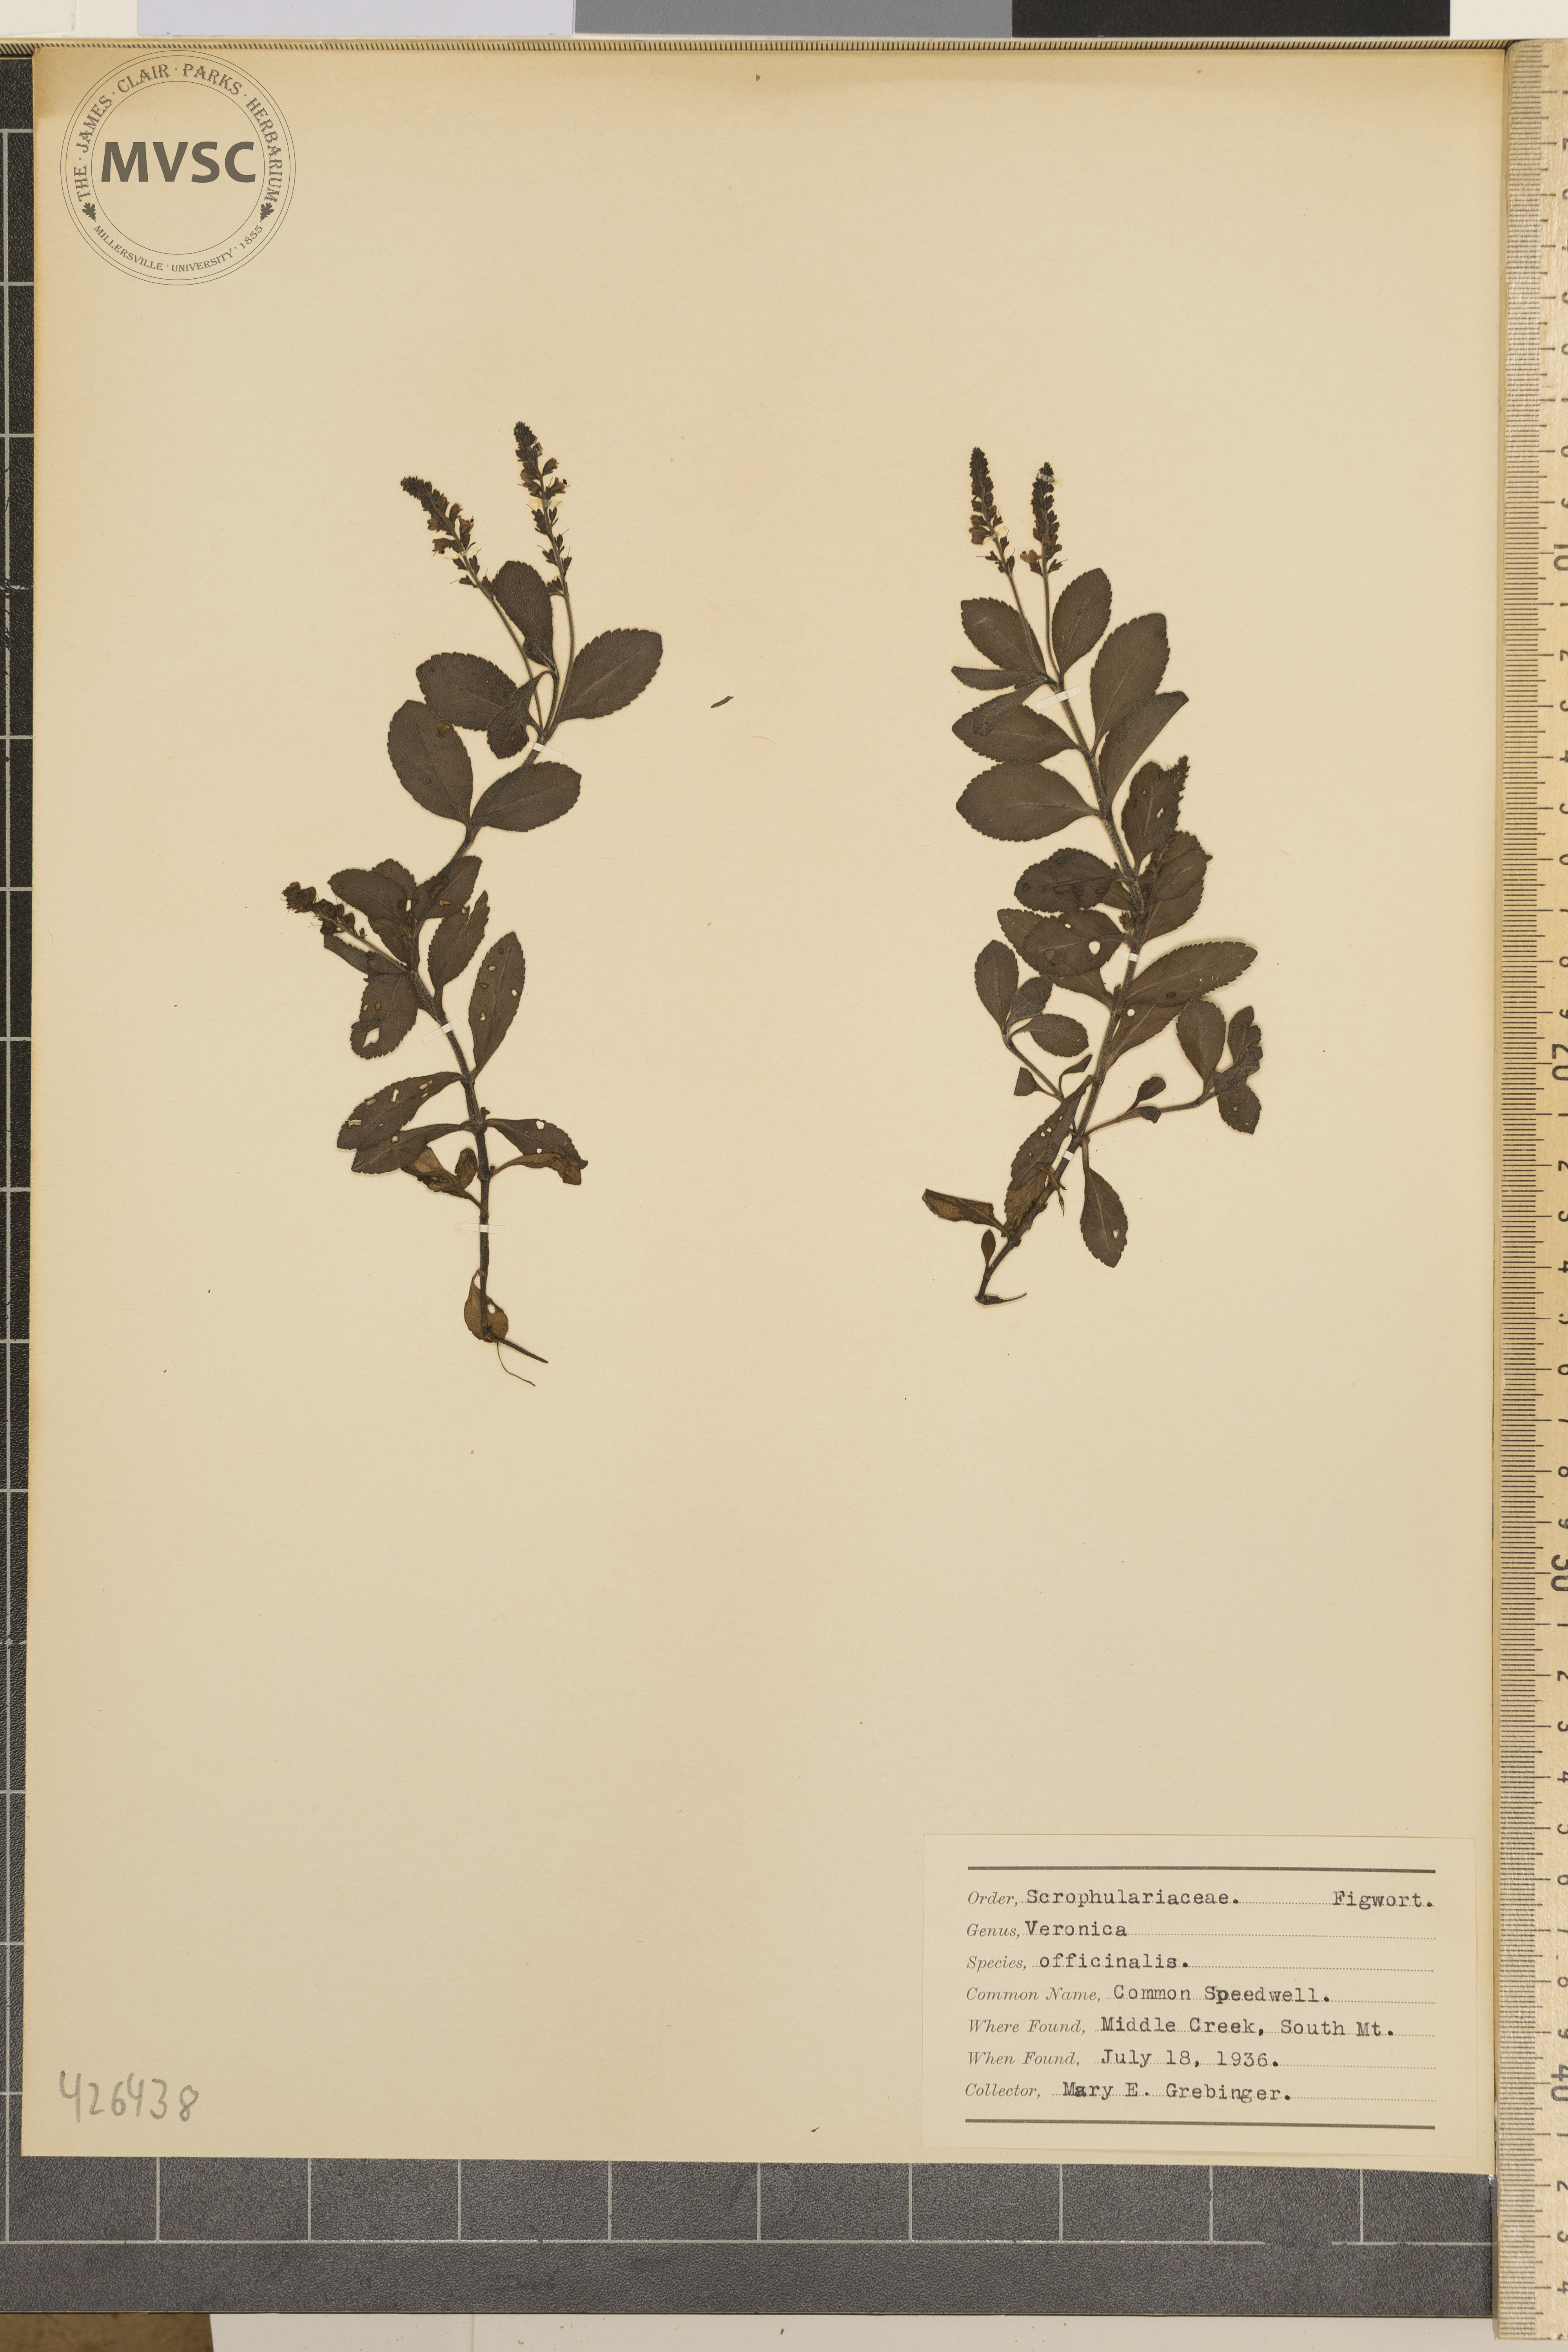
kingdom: Plantae
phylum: Tracheophyta
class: Magnoliopsida
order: Lamiales
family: Plantaginaceae
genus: Veronica
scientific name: Veronica officinalis
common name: Common speedwell
